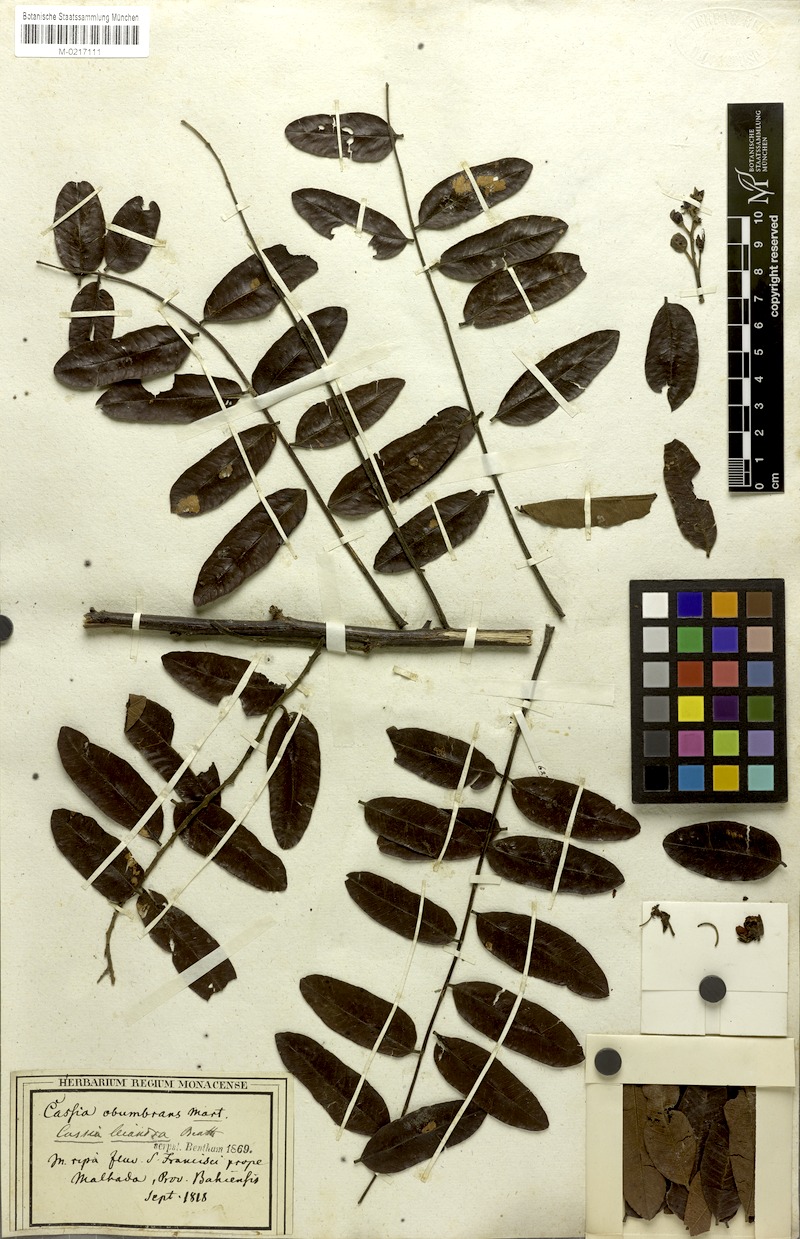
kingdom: Plantae
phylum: Tracheophyta
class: Magnoliopsida
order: Fabales
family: Fabaceae
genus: Cassia
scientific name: Cassia
